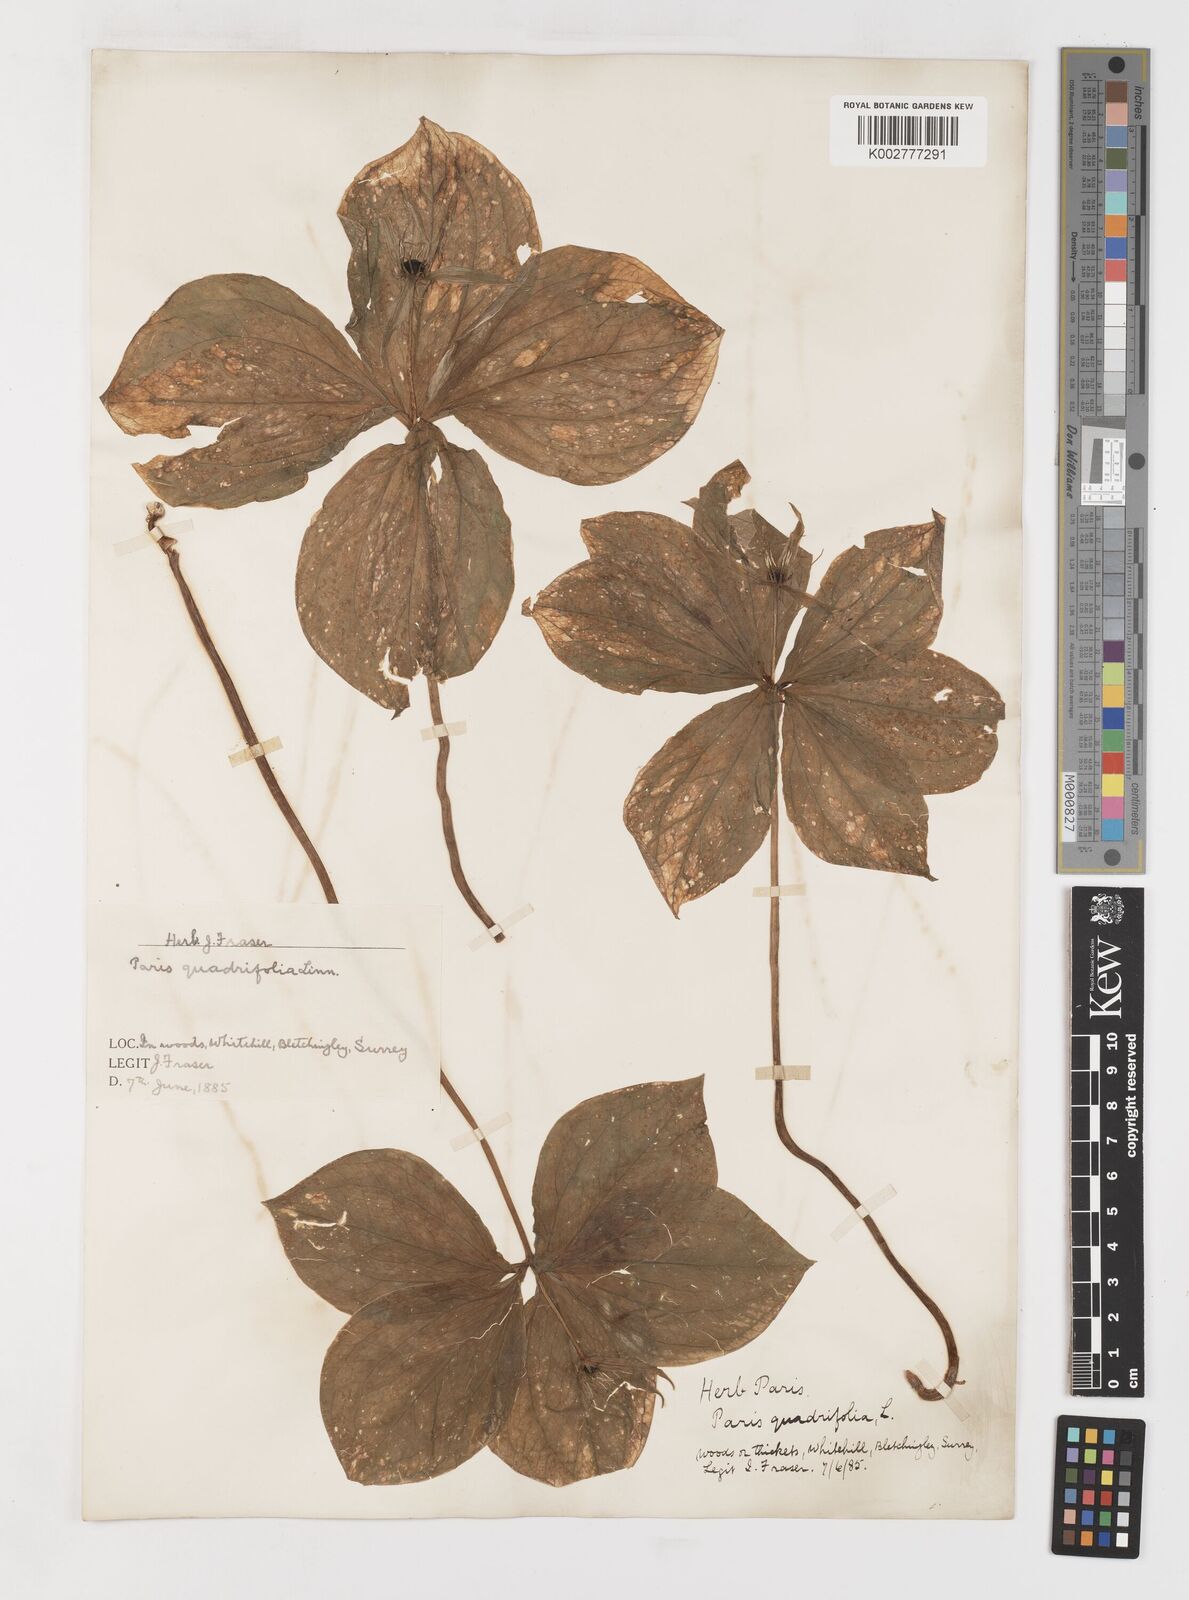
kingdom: Plantae
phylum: Tracheophyta
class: Liliopsida
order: Liliales
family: Melanthiaceae
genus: Paris
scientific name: Paris quadrifolia
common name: Herb-paris
